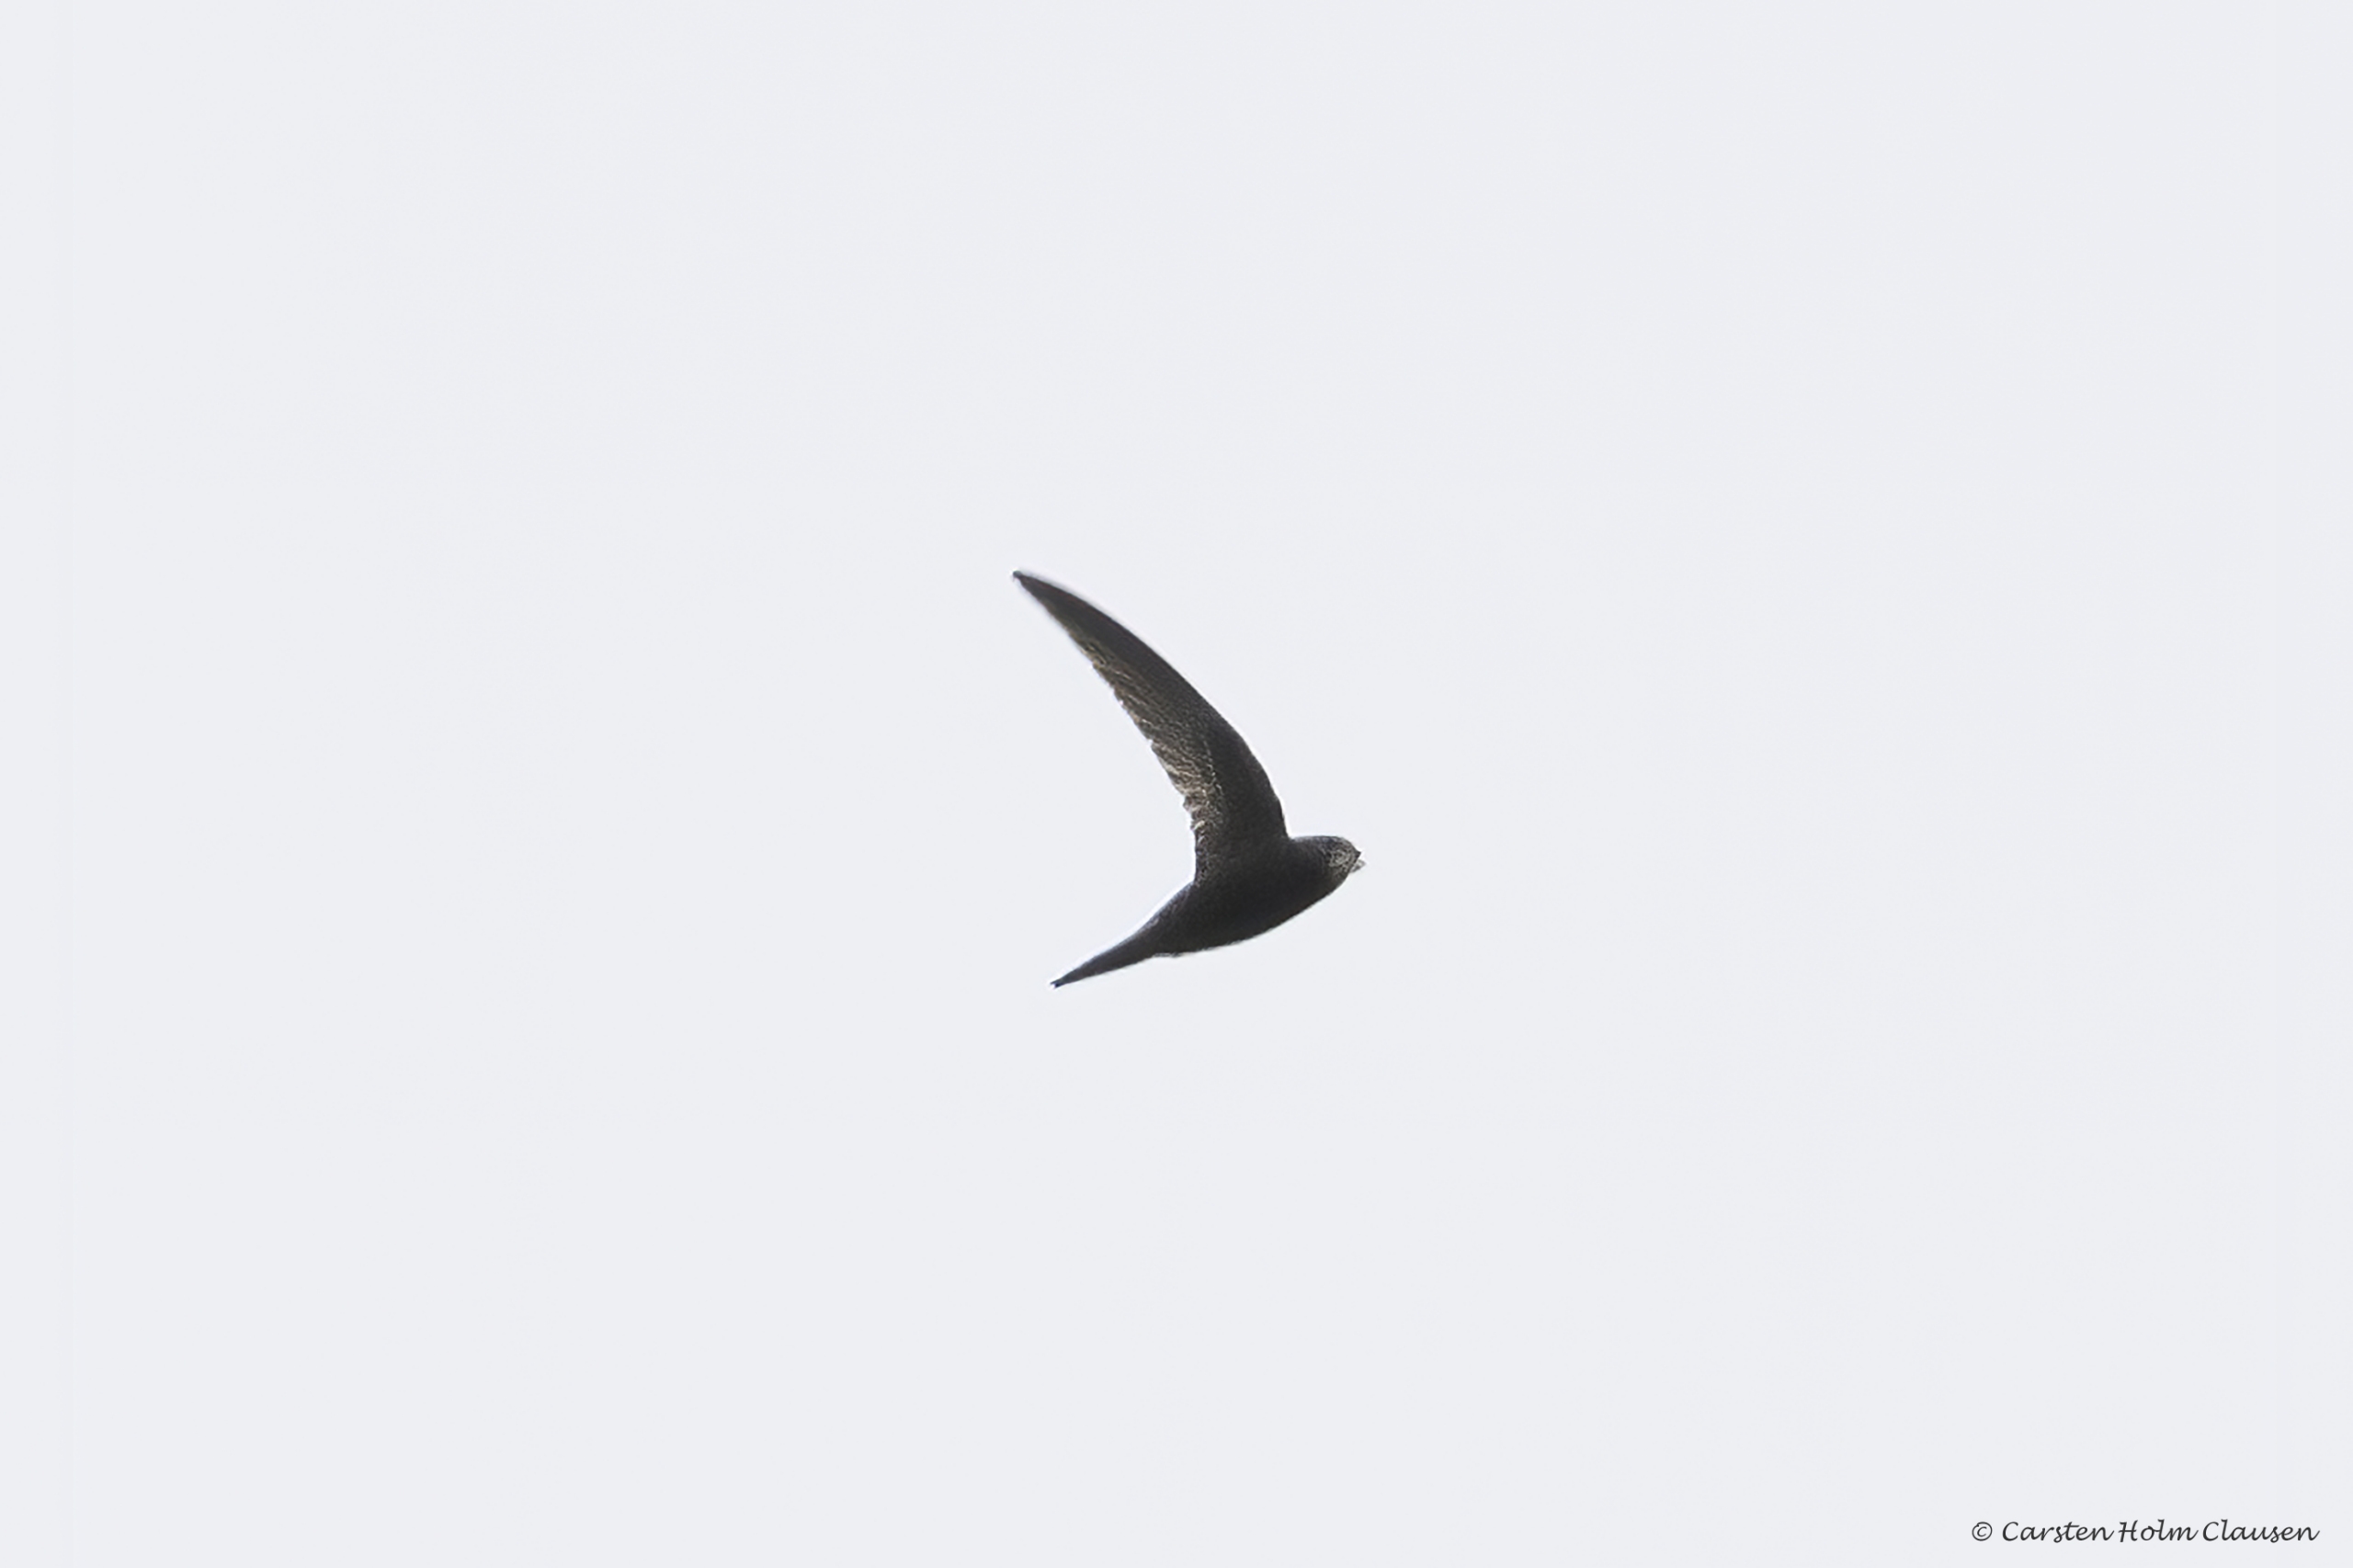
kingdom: Animalia
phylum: Chordata
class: Aves
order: Apodiformes
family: Apodidae
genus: Apus
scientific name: Apus apus
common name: Mursejler
